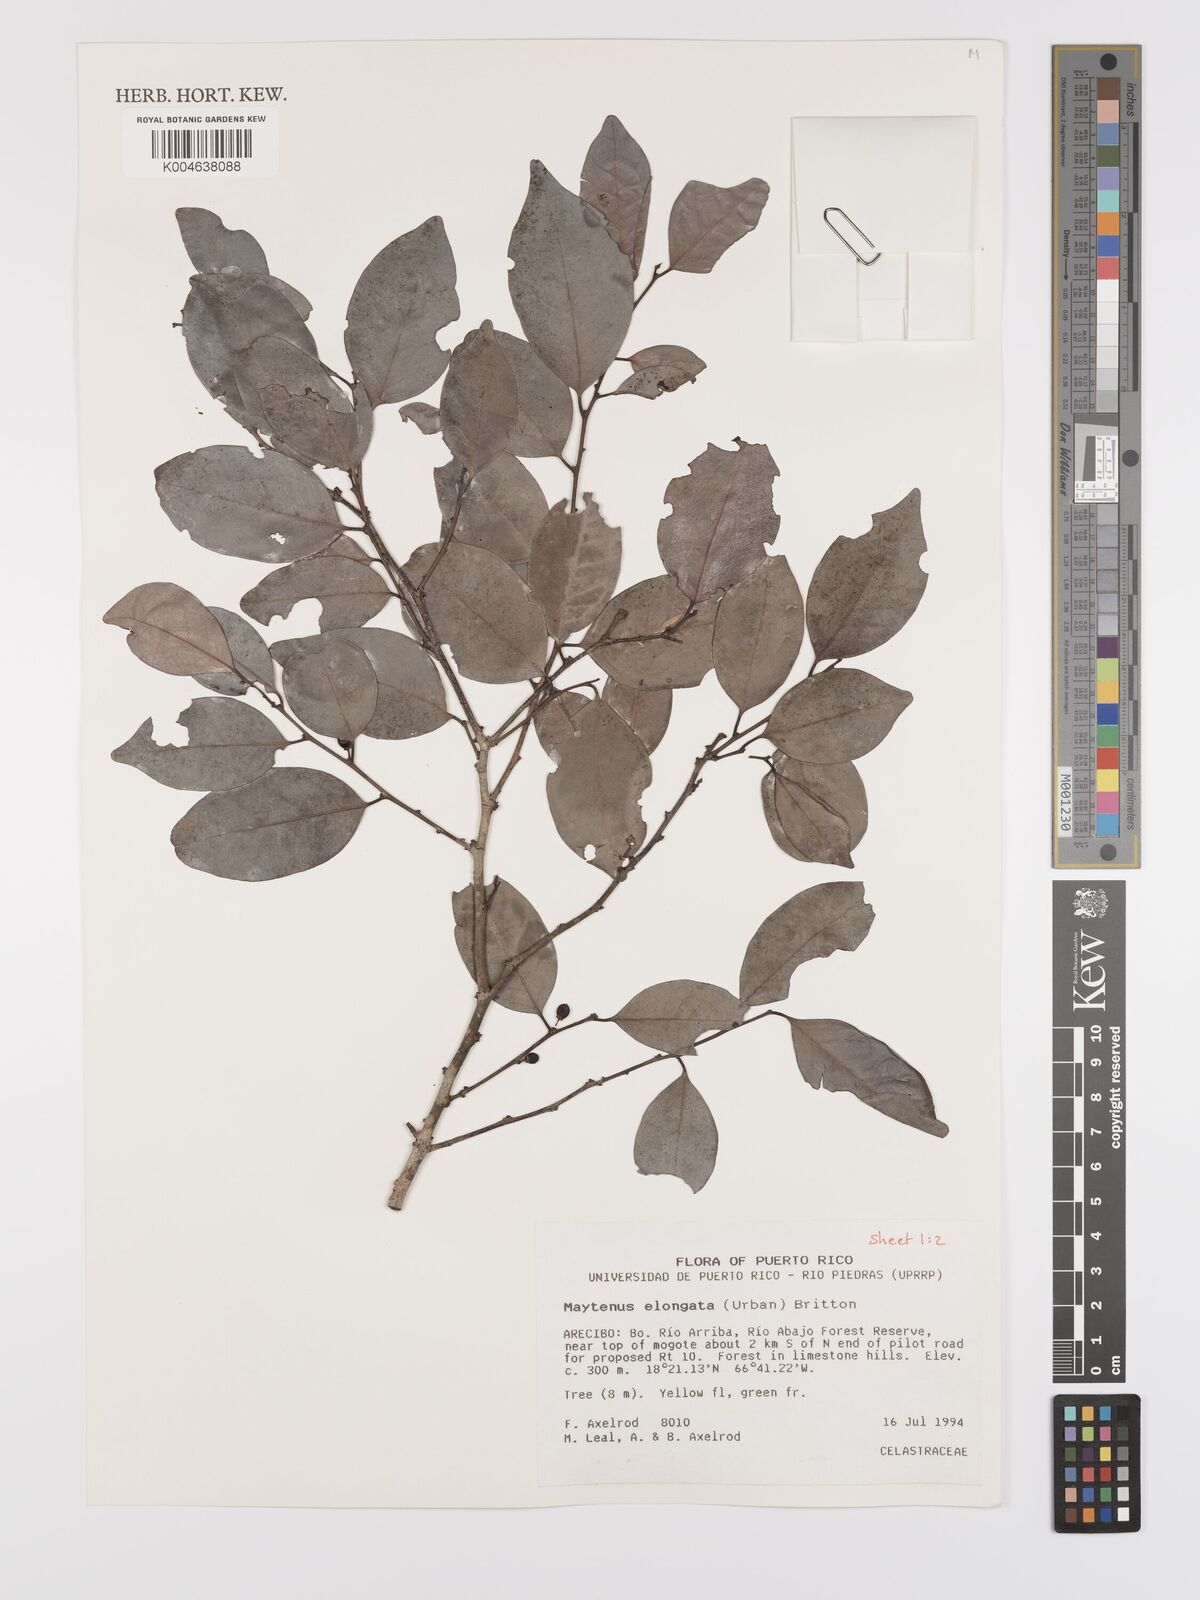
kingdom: Plantae
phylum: Tracheophyta
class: Magnoliopsida
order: Celastrales
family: Celastraceae
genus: Monteverdia
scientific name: Monteverdia elongata
